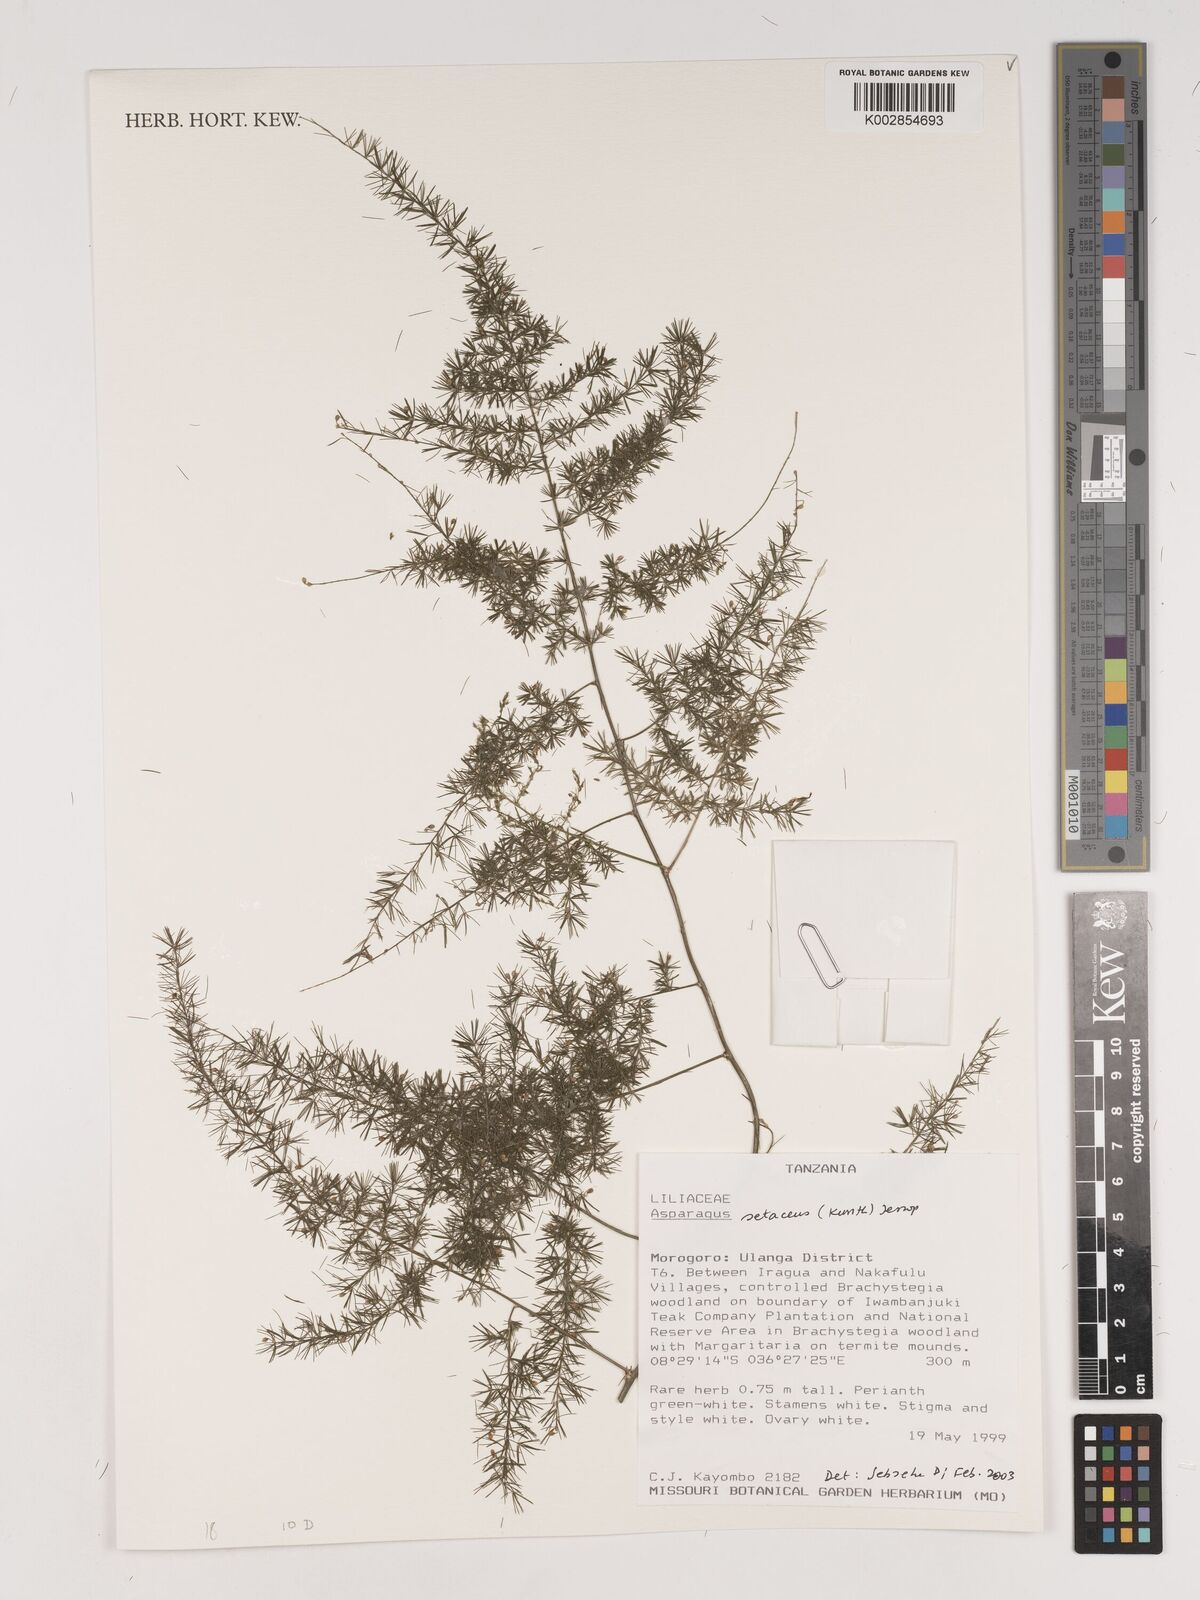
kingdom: Plantae
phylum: Tracheophyta
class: Liliopsida
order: Asparagales
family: Asparagaceae
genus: Asparagus
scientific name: Asparagus setaceus
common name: Common asparagus fern
